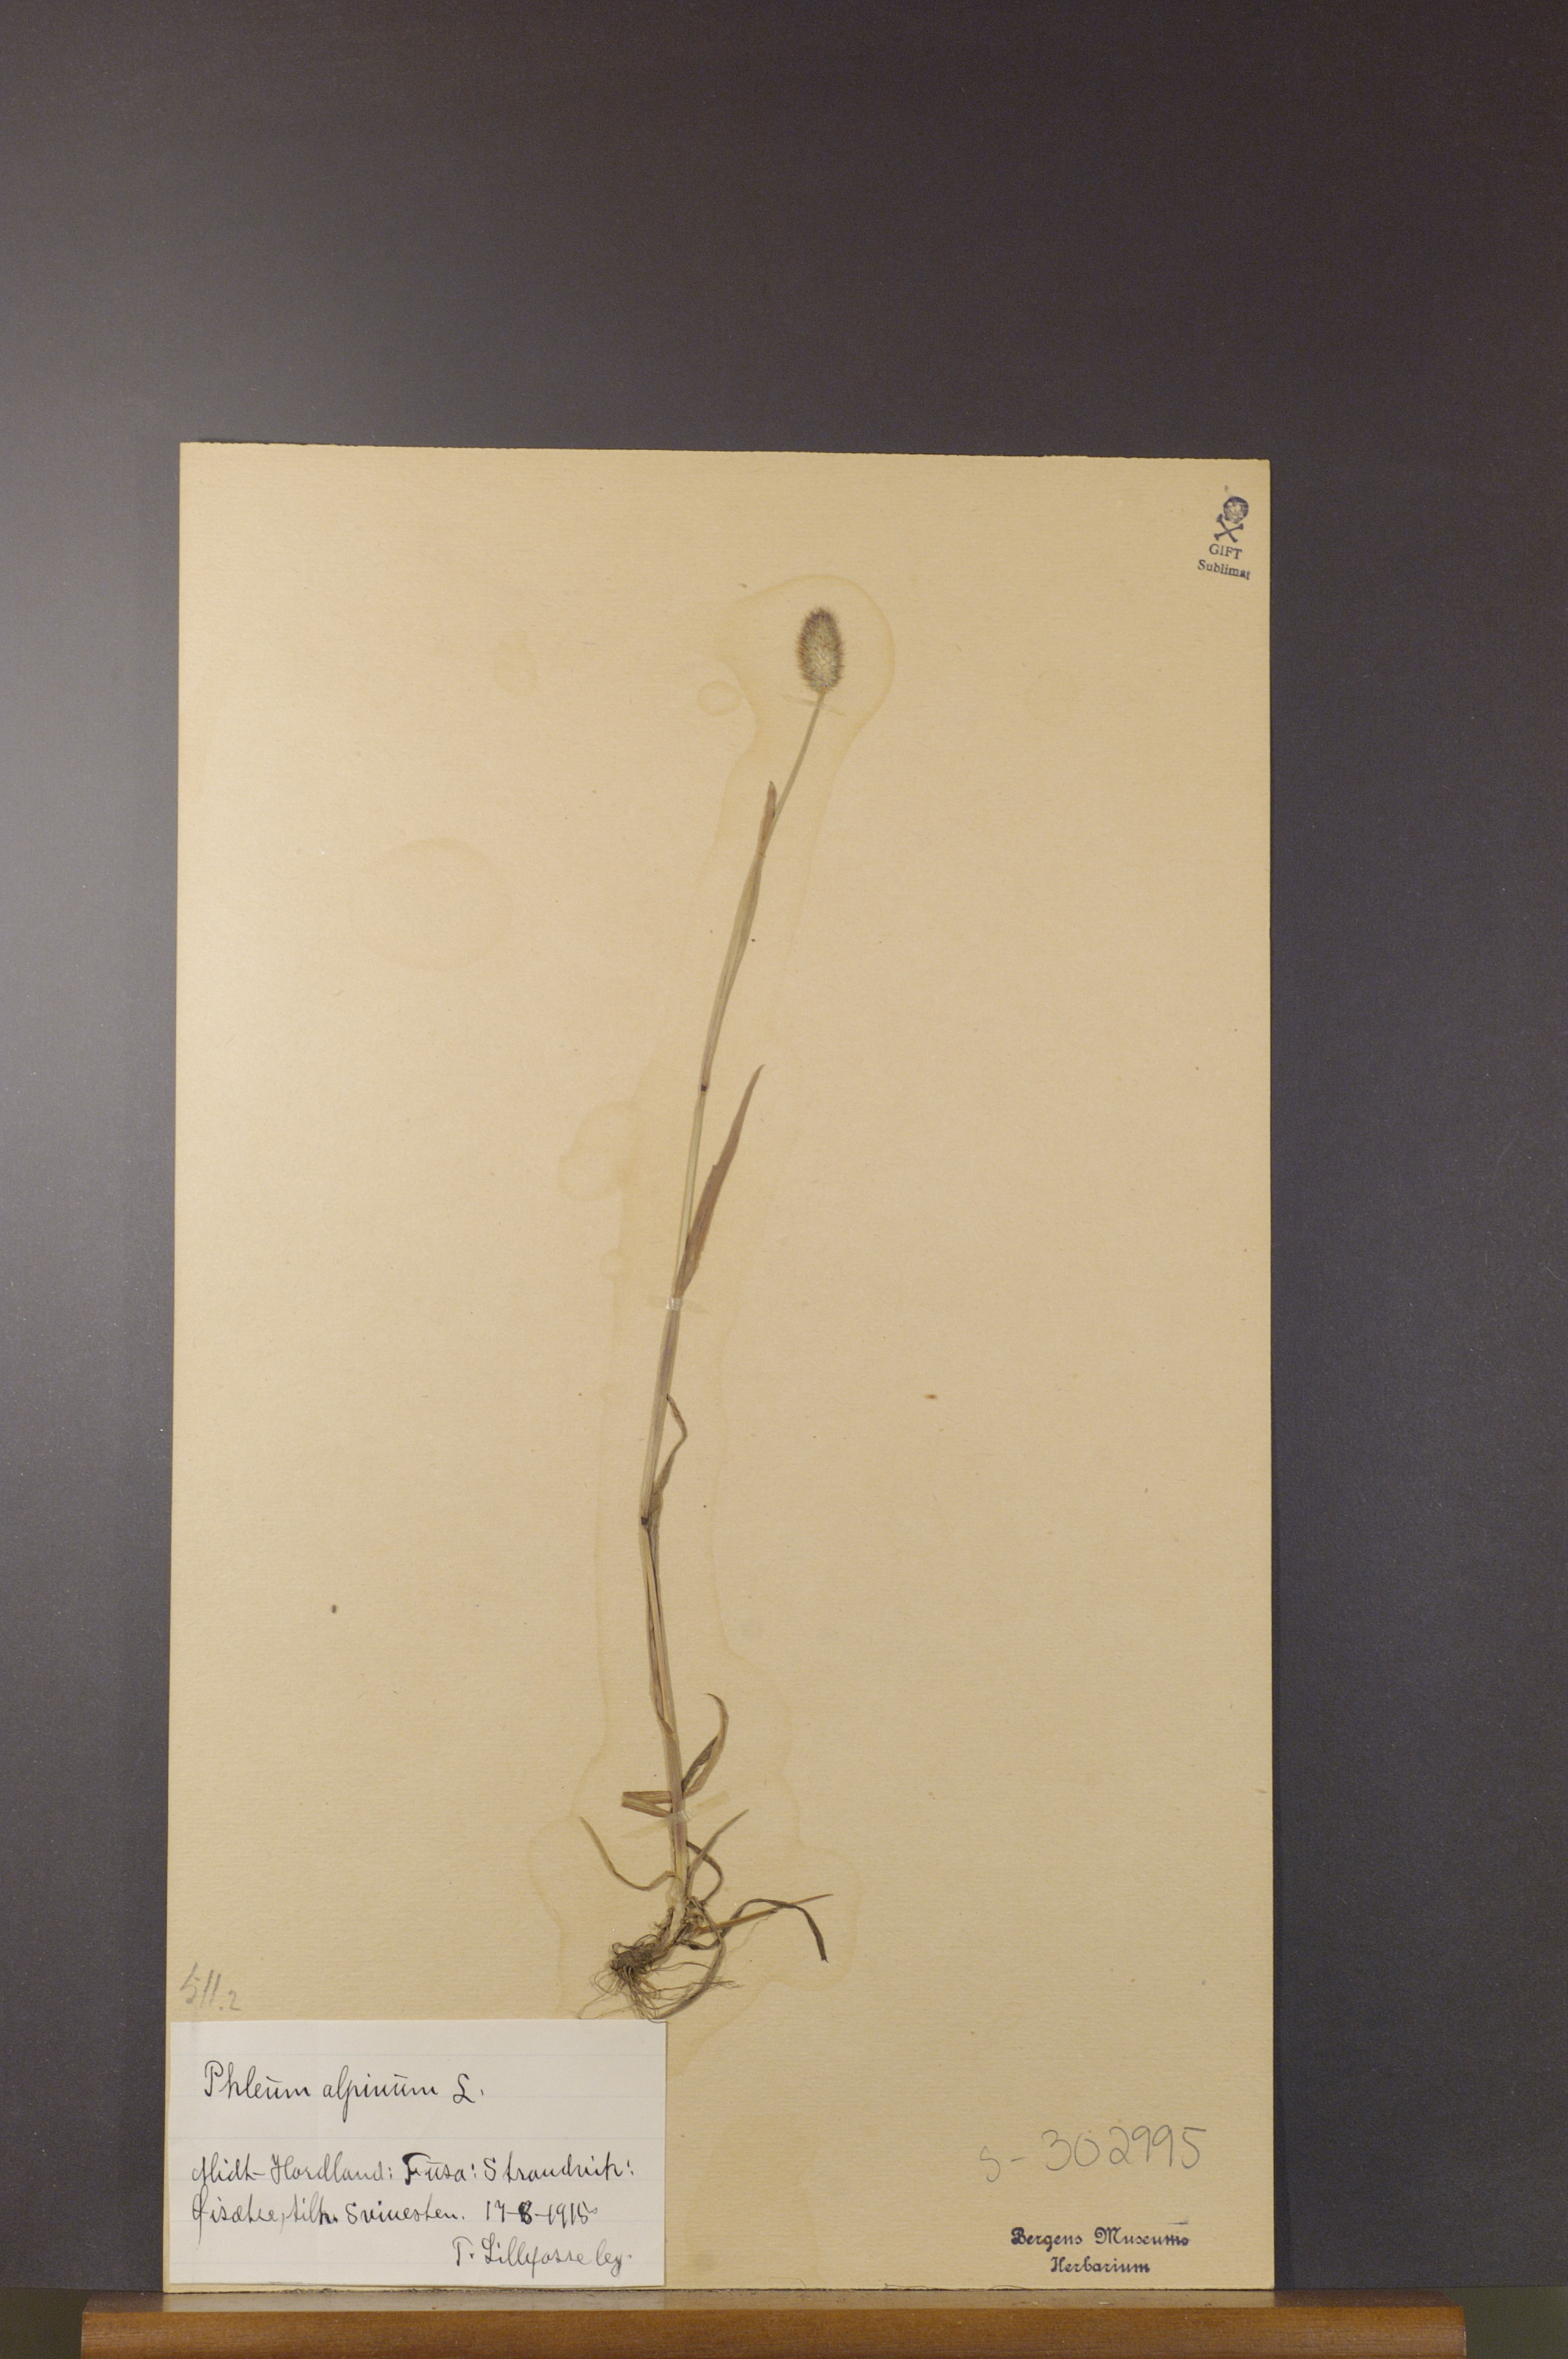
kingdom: Plantae
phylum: Tracheophyta
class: Liliopsida
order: Poales
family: Poaceae
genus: Phleum
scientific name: Phleum alpinum
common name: Alpine cat's-tail
